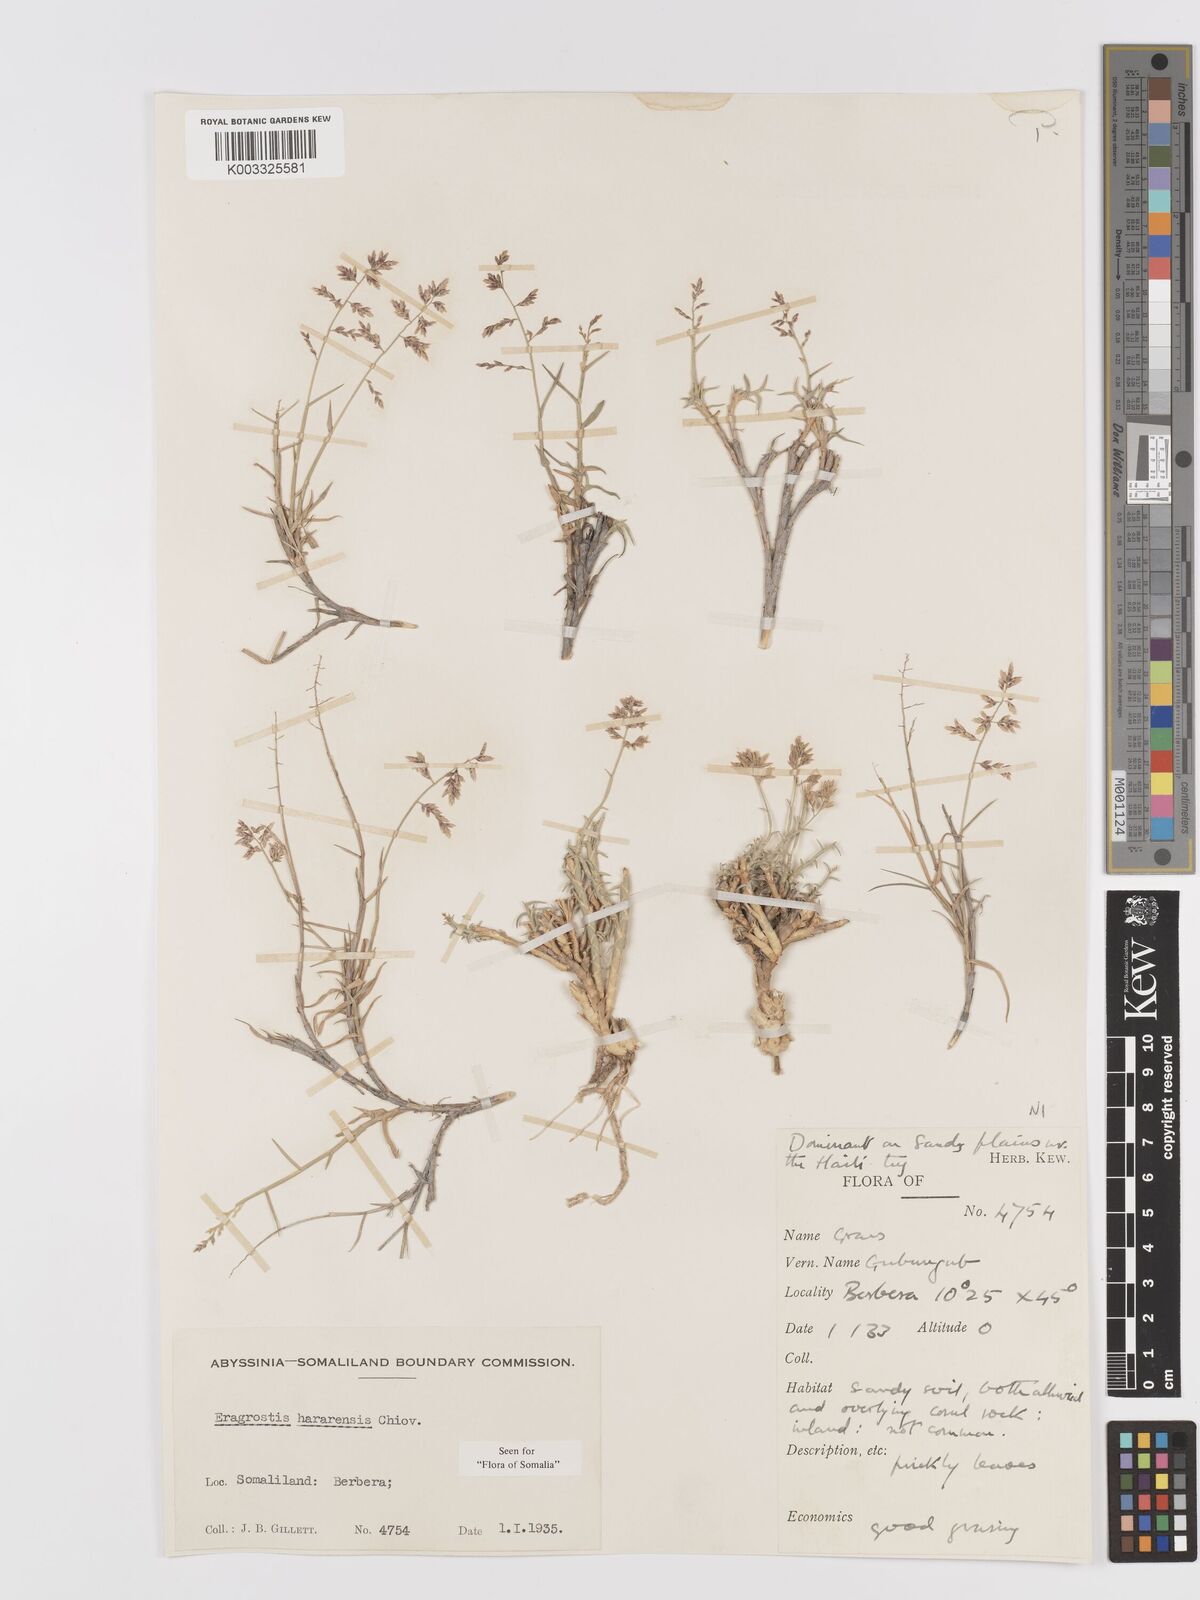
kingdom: Plantae
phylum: Tracheophyta
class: Liliopsida
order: Poales
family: Poaceae
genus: Eragrostis
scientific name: Eragrostis mahrana
